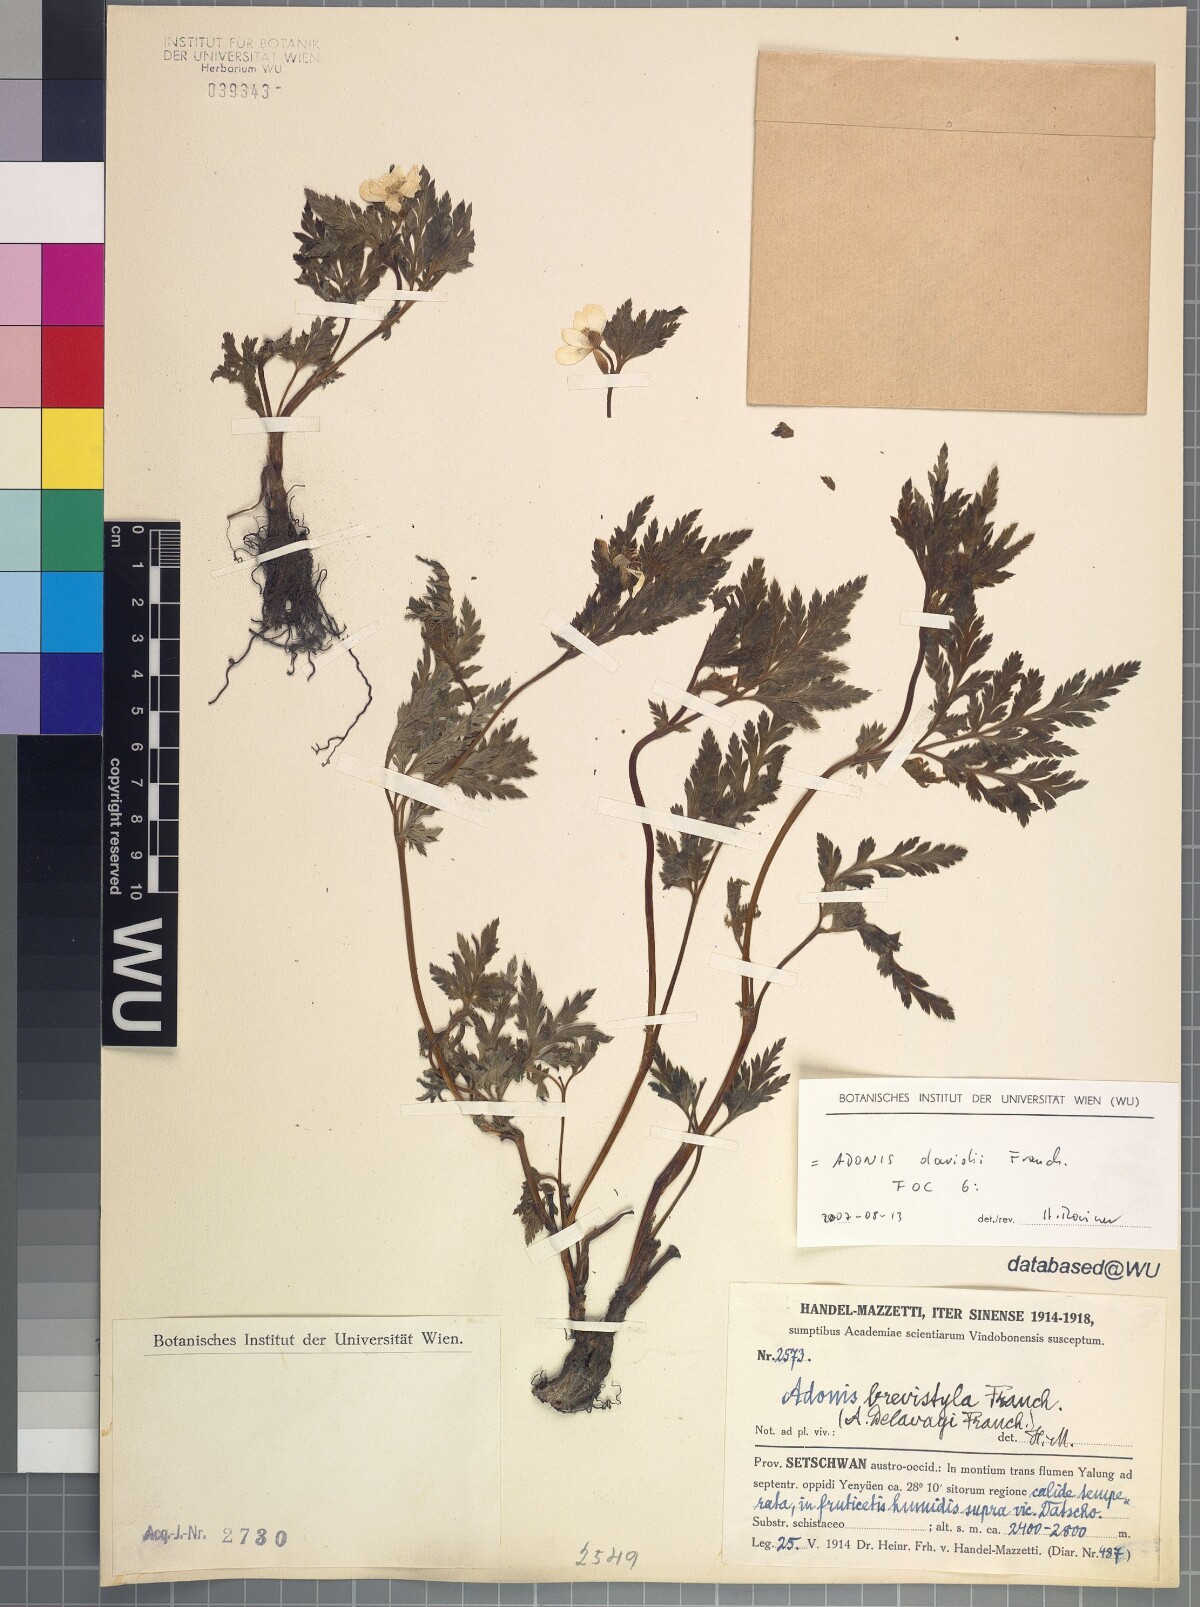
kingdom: Plantae
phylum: Tracheophyta
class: Magnoliopsida
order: Ranunculales
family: Ranunculaceae
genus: Adonis
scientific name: Adonis davidii
